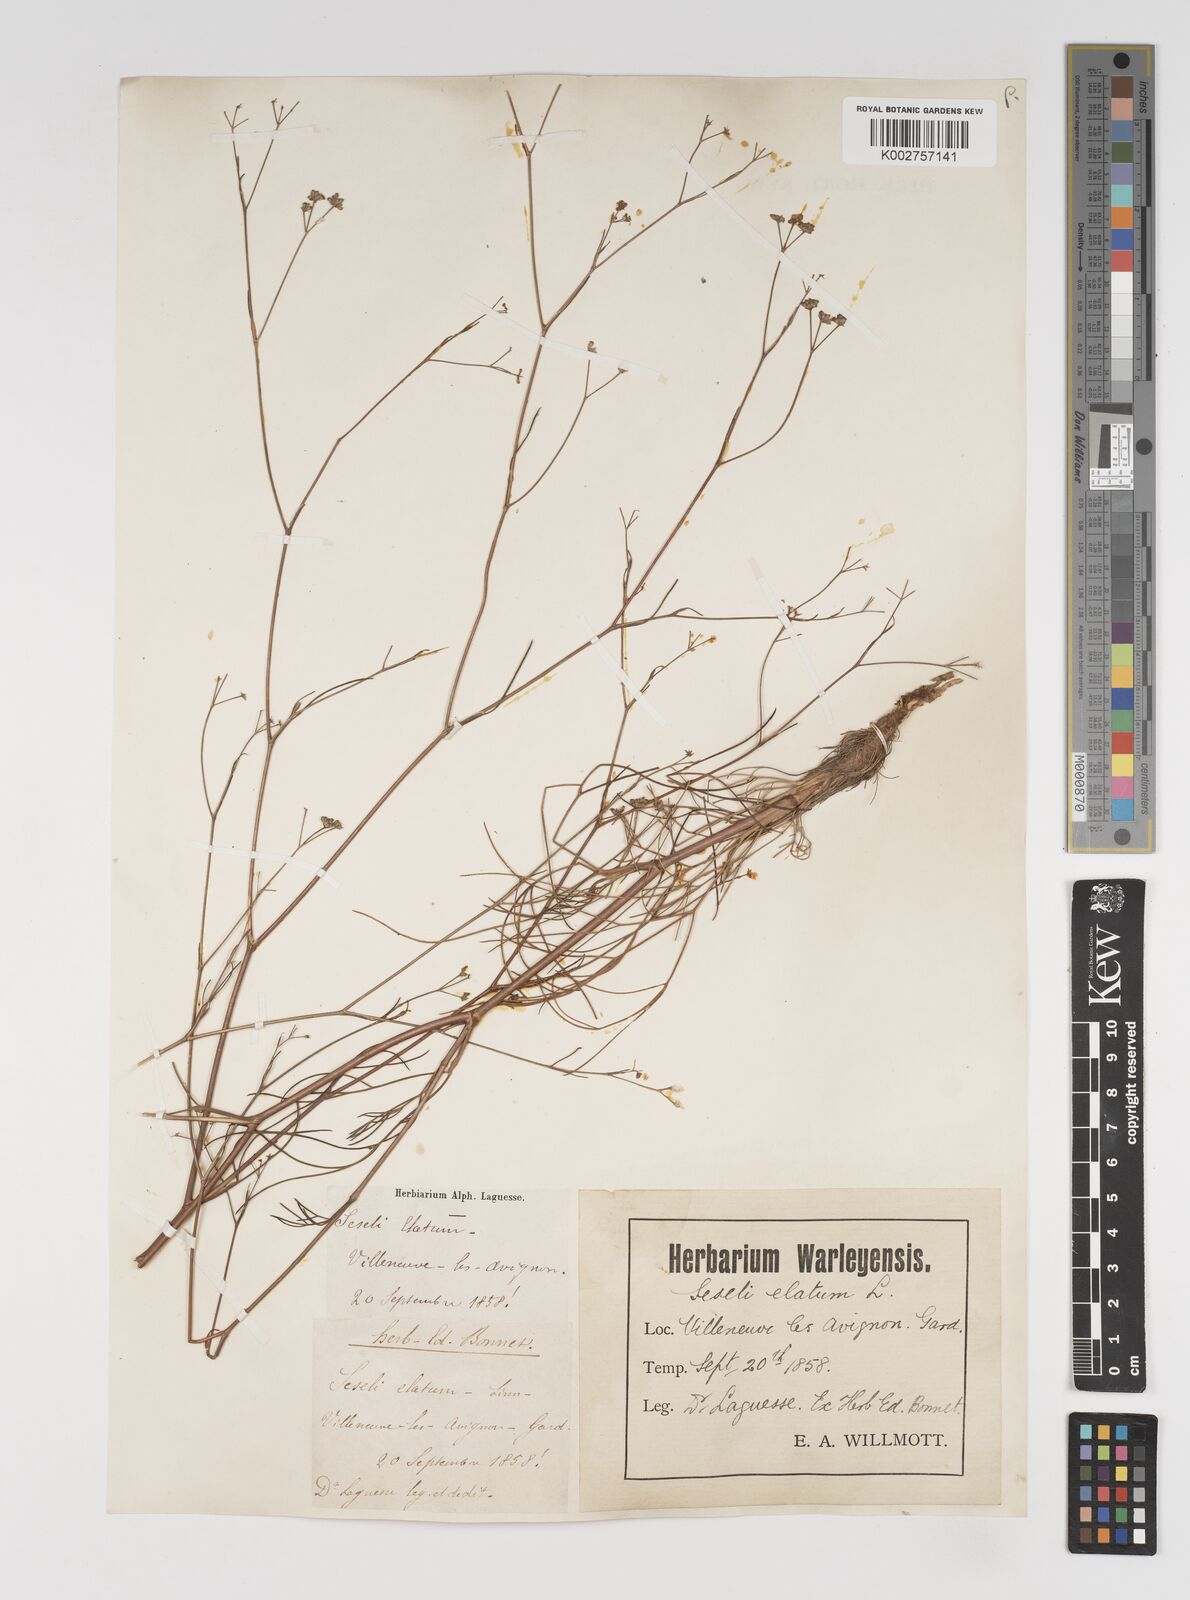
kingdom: Plantae
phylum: Tracheophyta
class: Magnoliopsida
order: Apiales
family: Apiaceae
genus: Seseli
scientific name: Seseli longifolium
